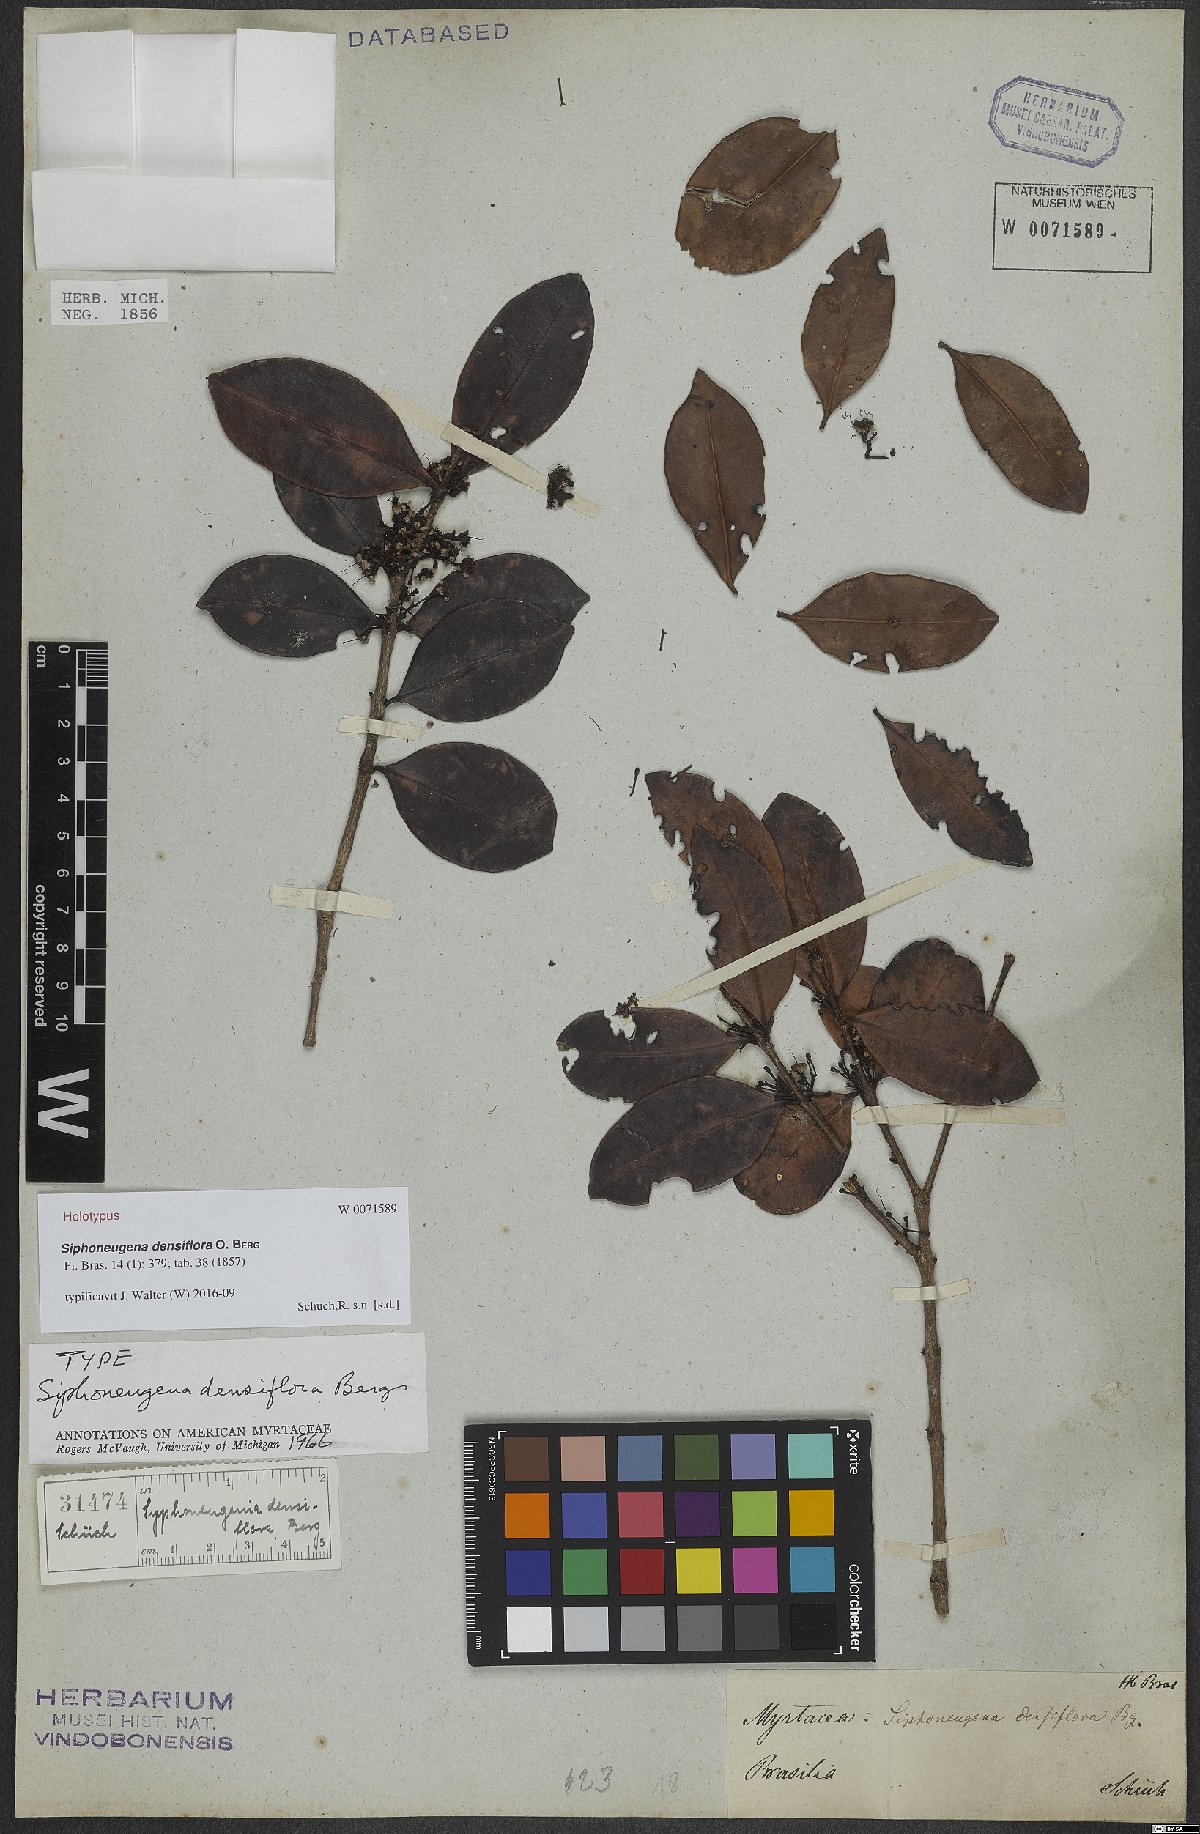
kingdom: Plantae
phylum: Tracheophyta
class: Magnoliopsida
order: Myrtales
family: Myrtaceae
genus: Siphoneugena
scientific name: Siphoneugena densiflora
